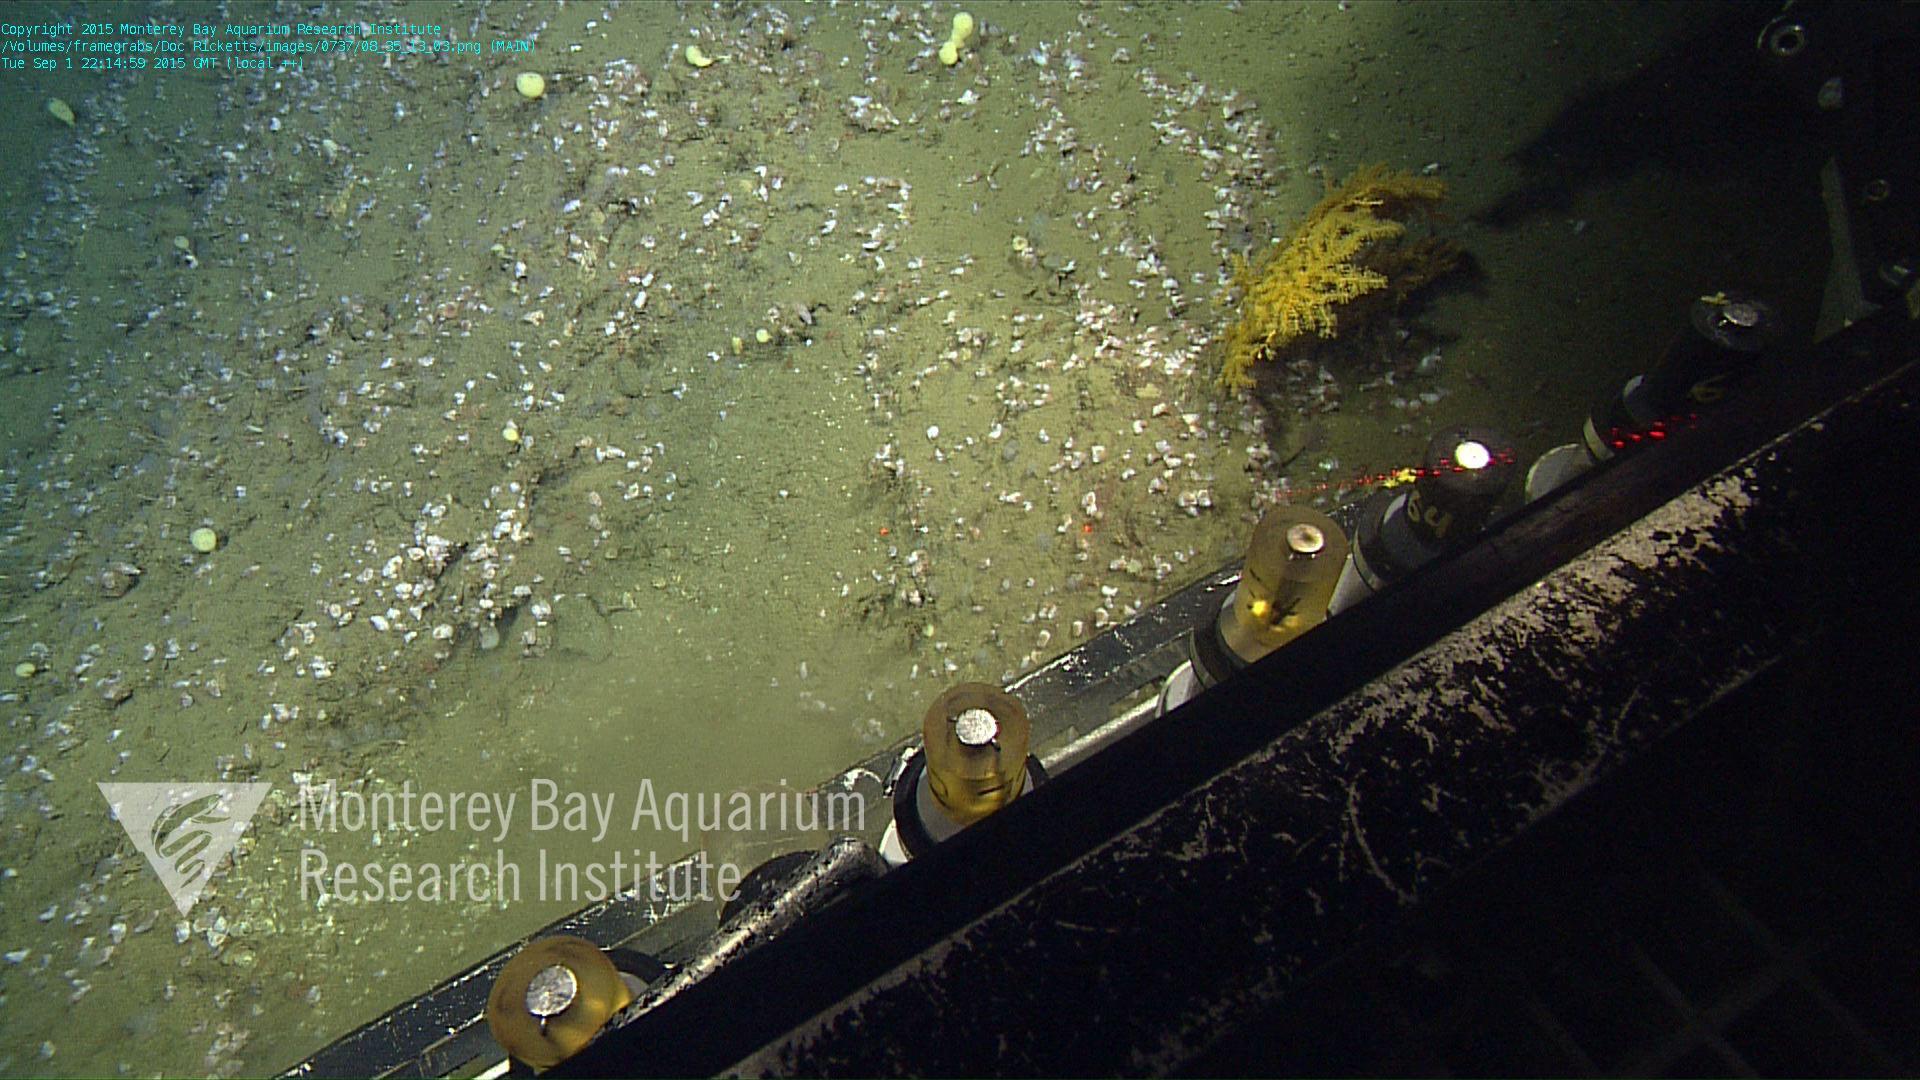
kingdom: Animalia
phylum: Cnidaria
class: Anthozoa
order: Malacalcyonacea
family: Paramuriceidae
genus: Acanthogorgia
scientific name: Acanthogorgia
